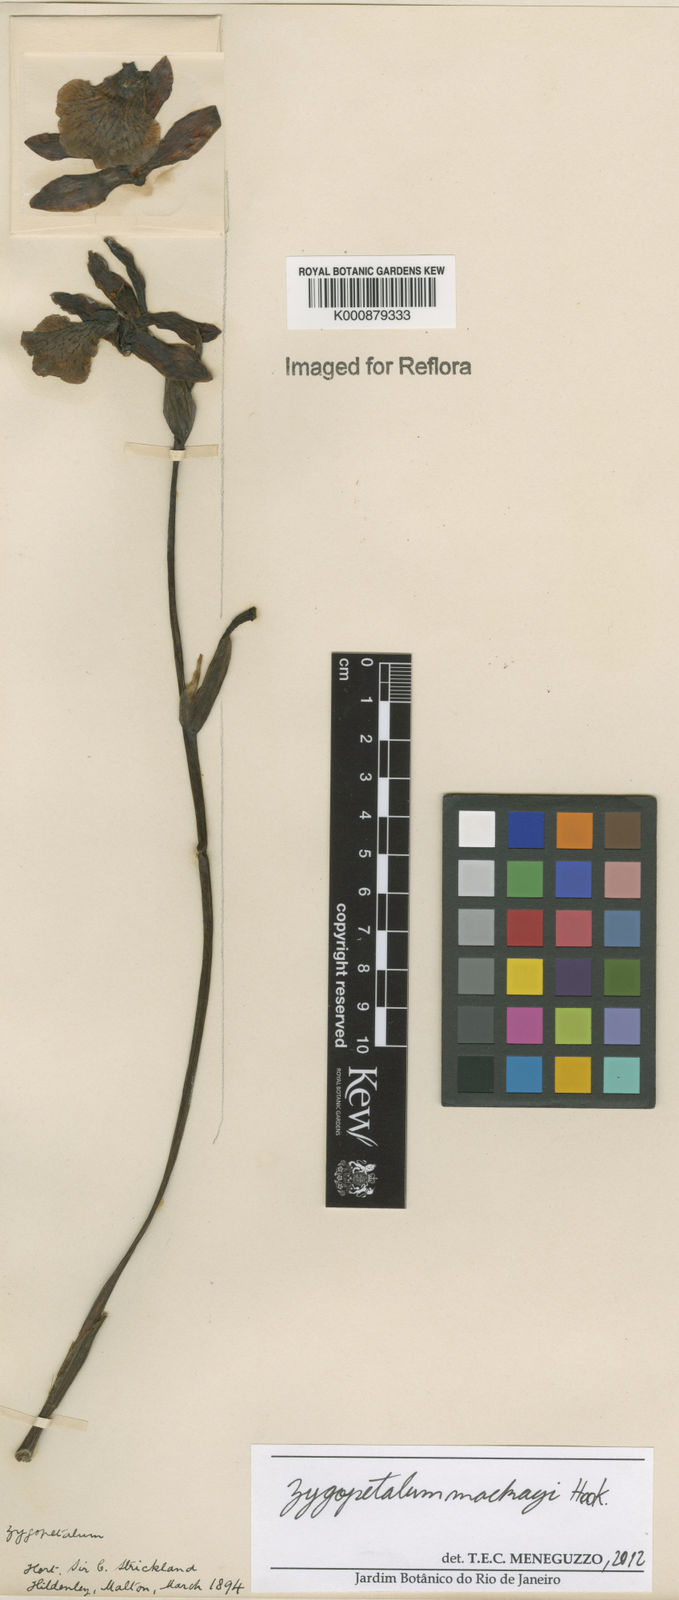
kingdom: Plantae
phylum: Tracheophyta
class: Liliopsida
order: Asparagales
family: Orchidaceae
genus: Zygopetalum
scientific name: Zygopetalum maculatum
